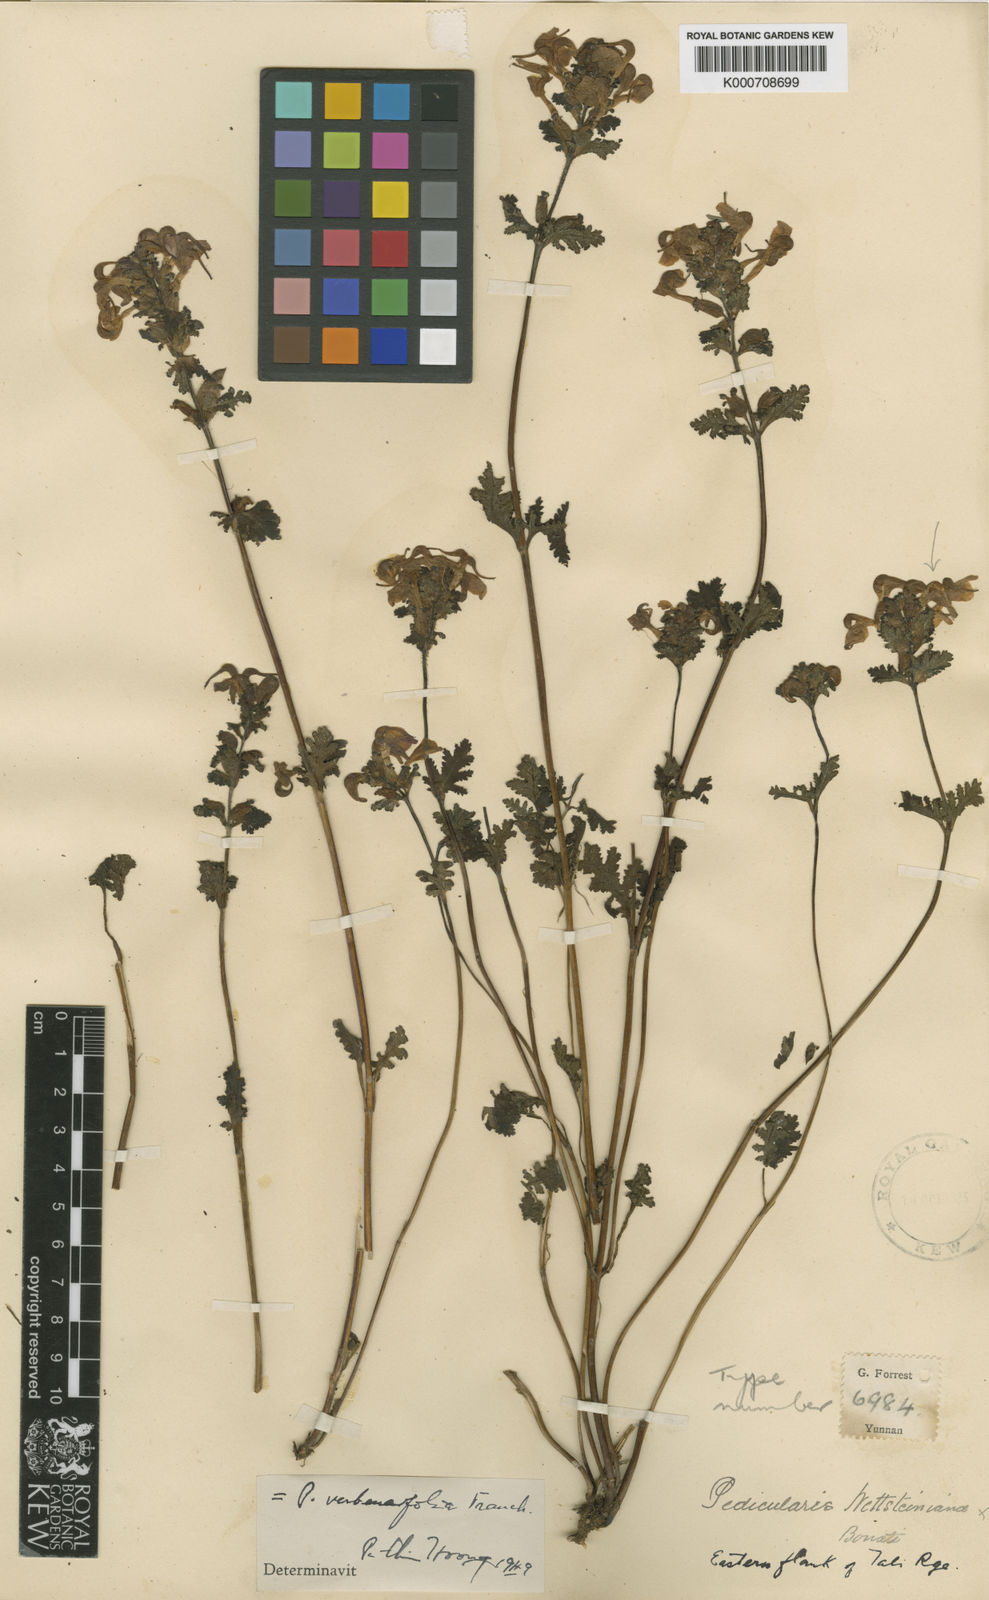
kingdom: Plantae
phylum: Tracheophyta
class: Magnoliopsida
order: Lamiales
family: Orobanchaceae
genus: Pedicularis
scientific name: Pedicularis
